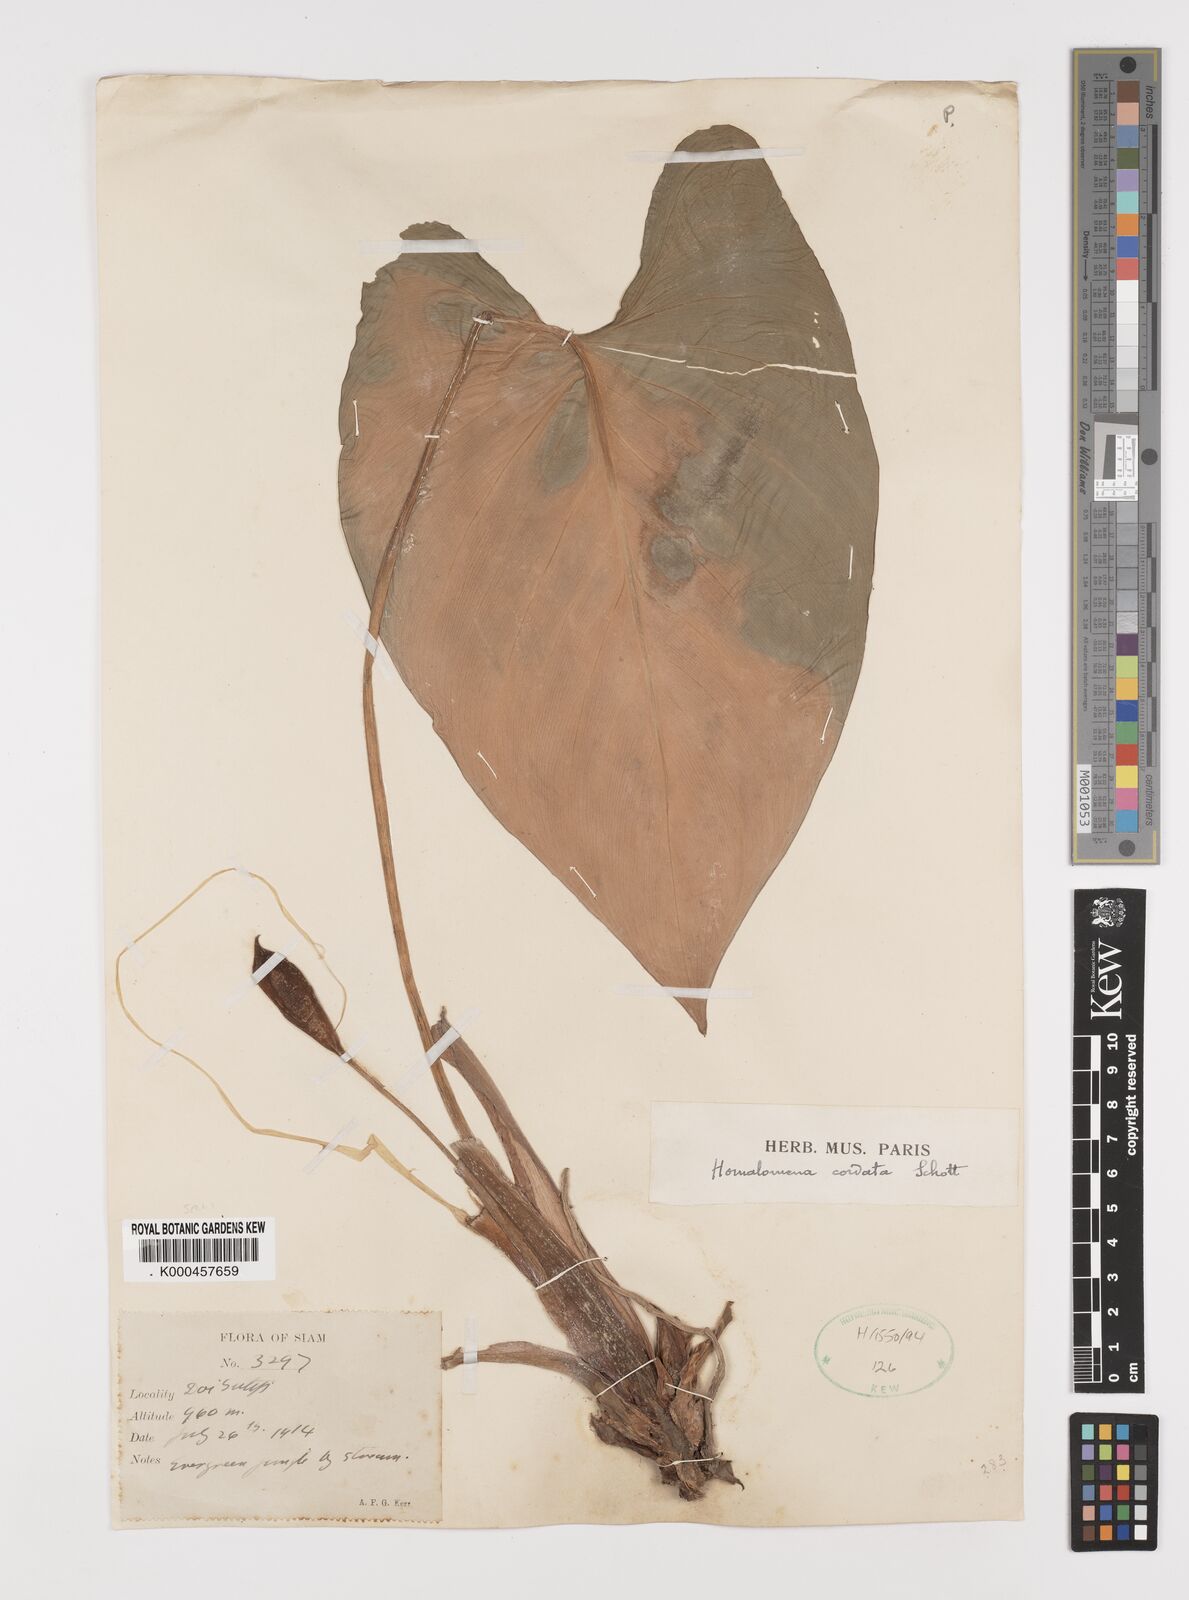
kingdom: Plantae
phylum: Tracheophyta
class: Liliopsida
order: Alismatales
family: Araceae
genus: Homalomena
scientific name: Homalomena cordata
